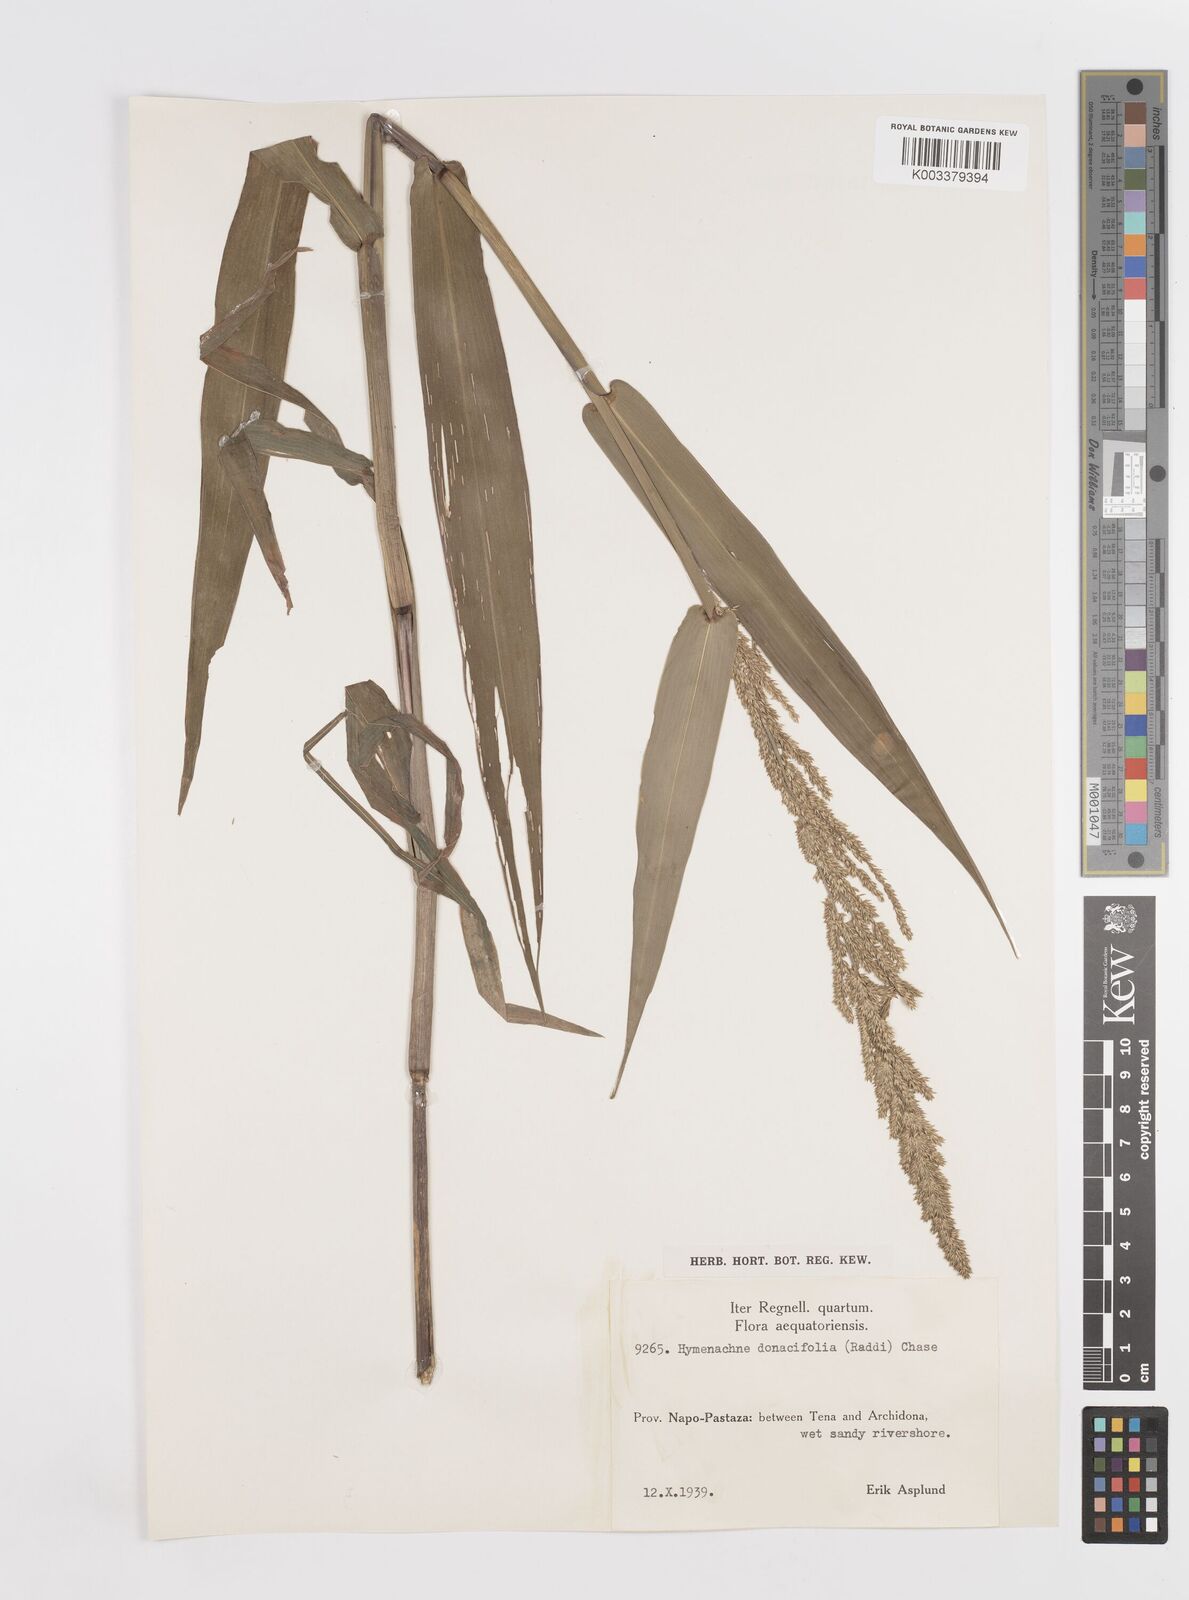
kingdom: Plantae
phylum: Tracheophyta
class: Liliopsida
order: Poales
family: Poaceae
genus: Hymenachne
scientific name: Hymenachne donacifolia
